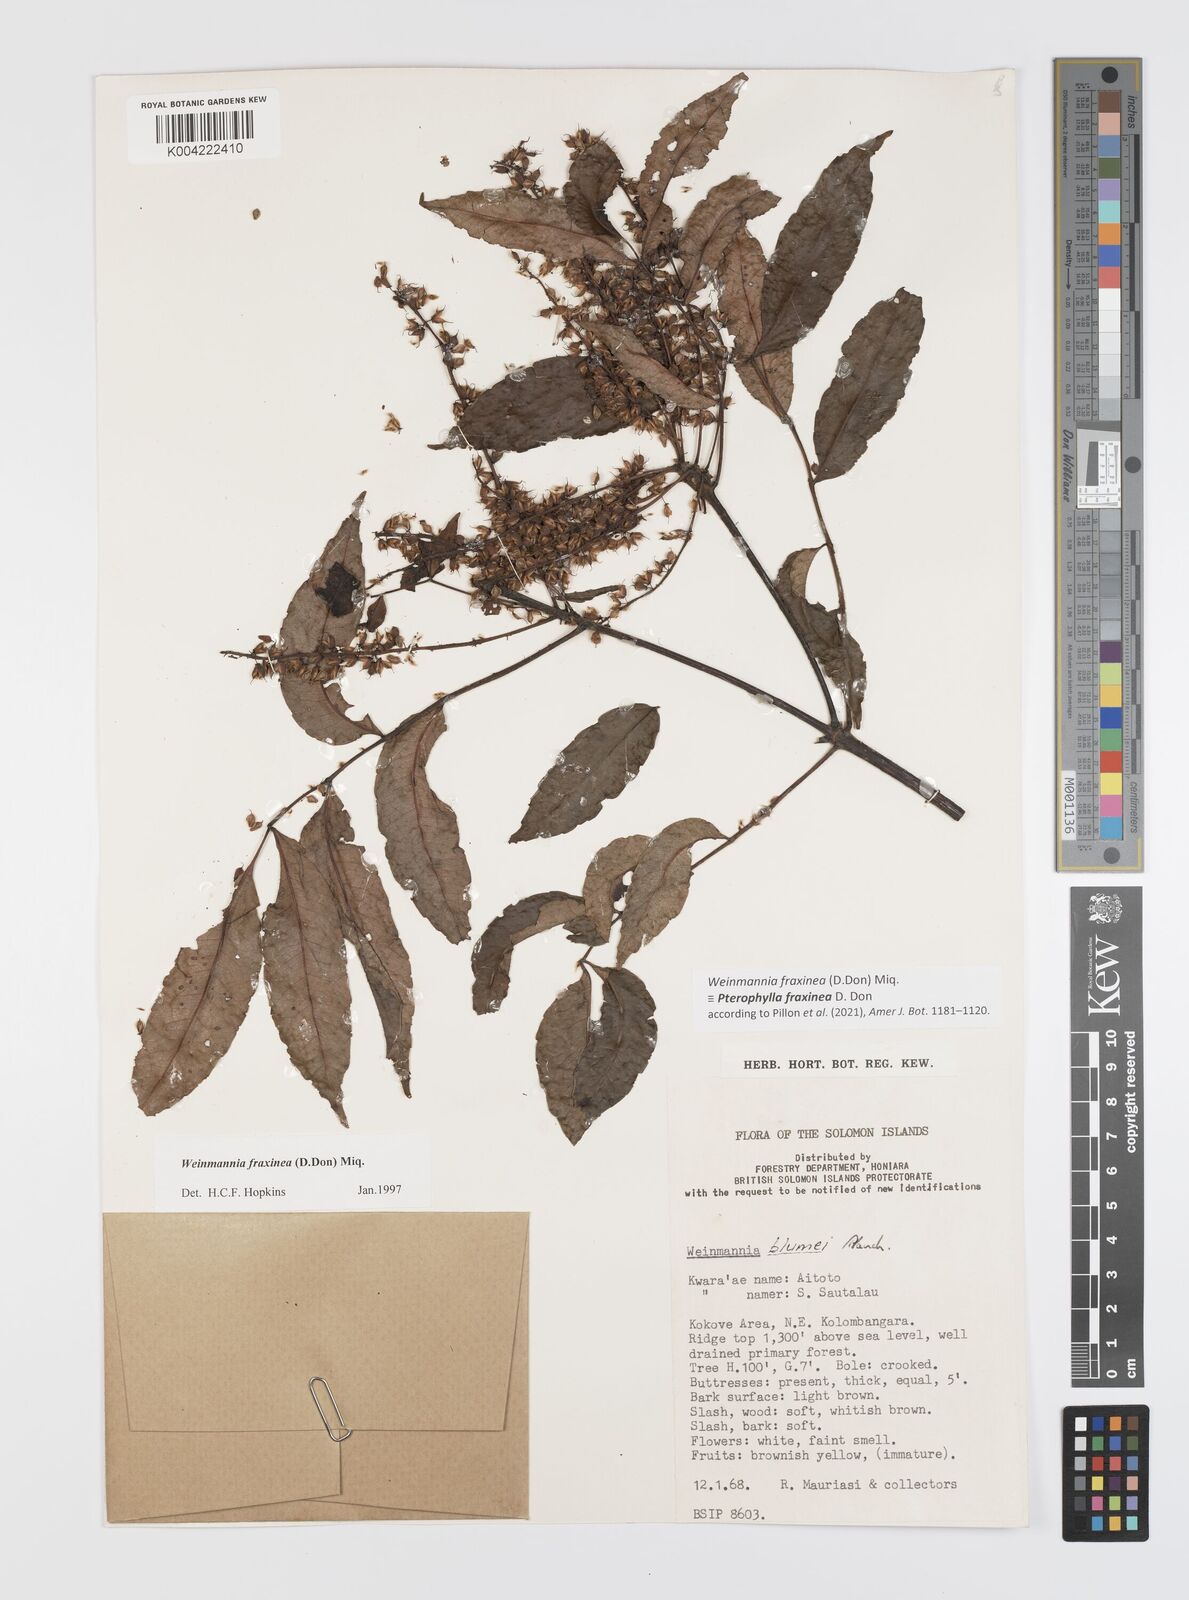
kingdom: Plantae
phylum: Tracheophyta
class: Magnoliopsida
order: Oxalidales
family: Cunoniaceae
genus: Pterophylla
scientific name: Pterophylla fraxinea
